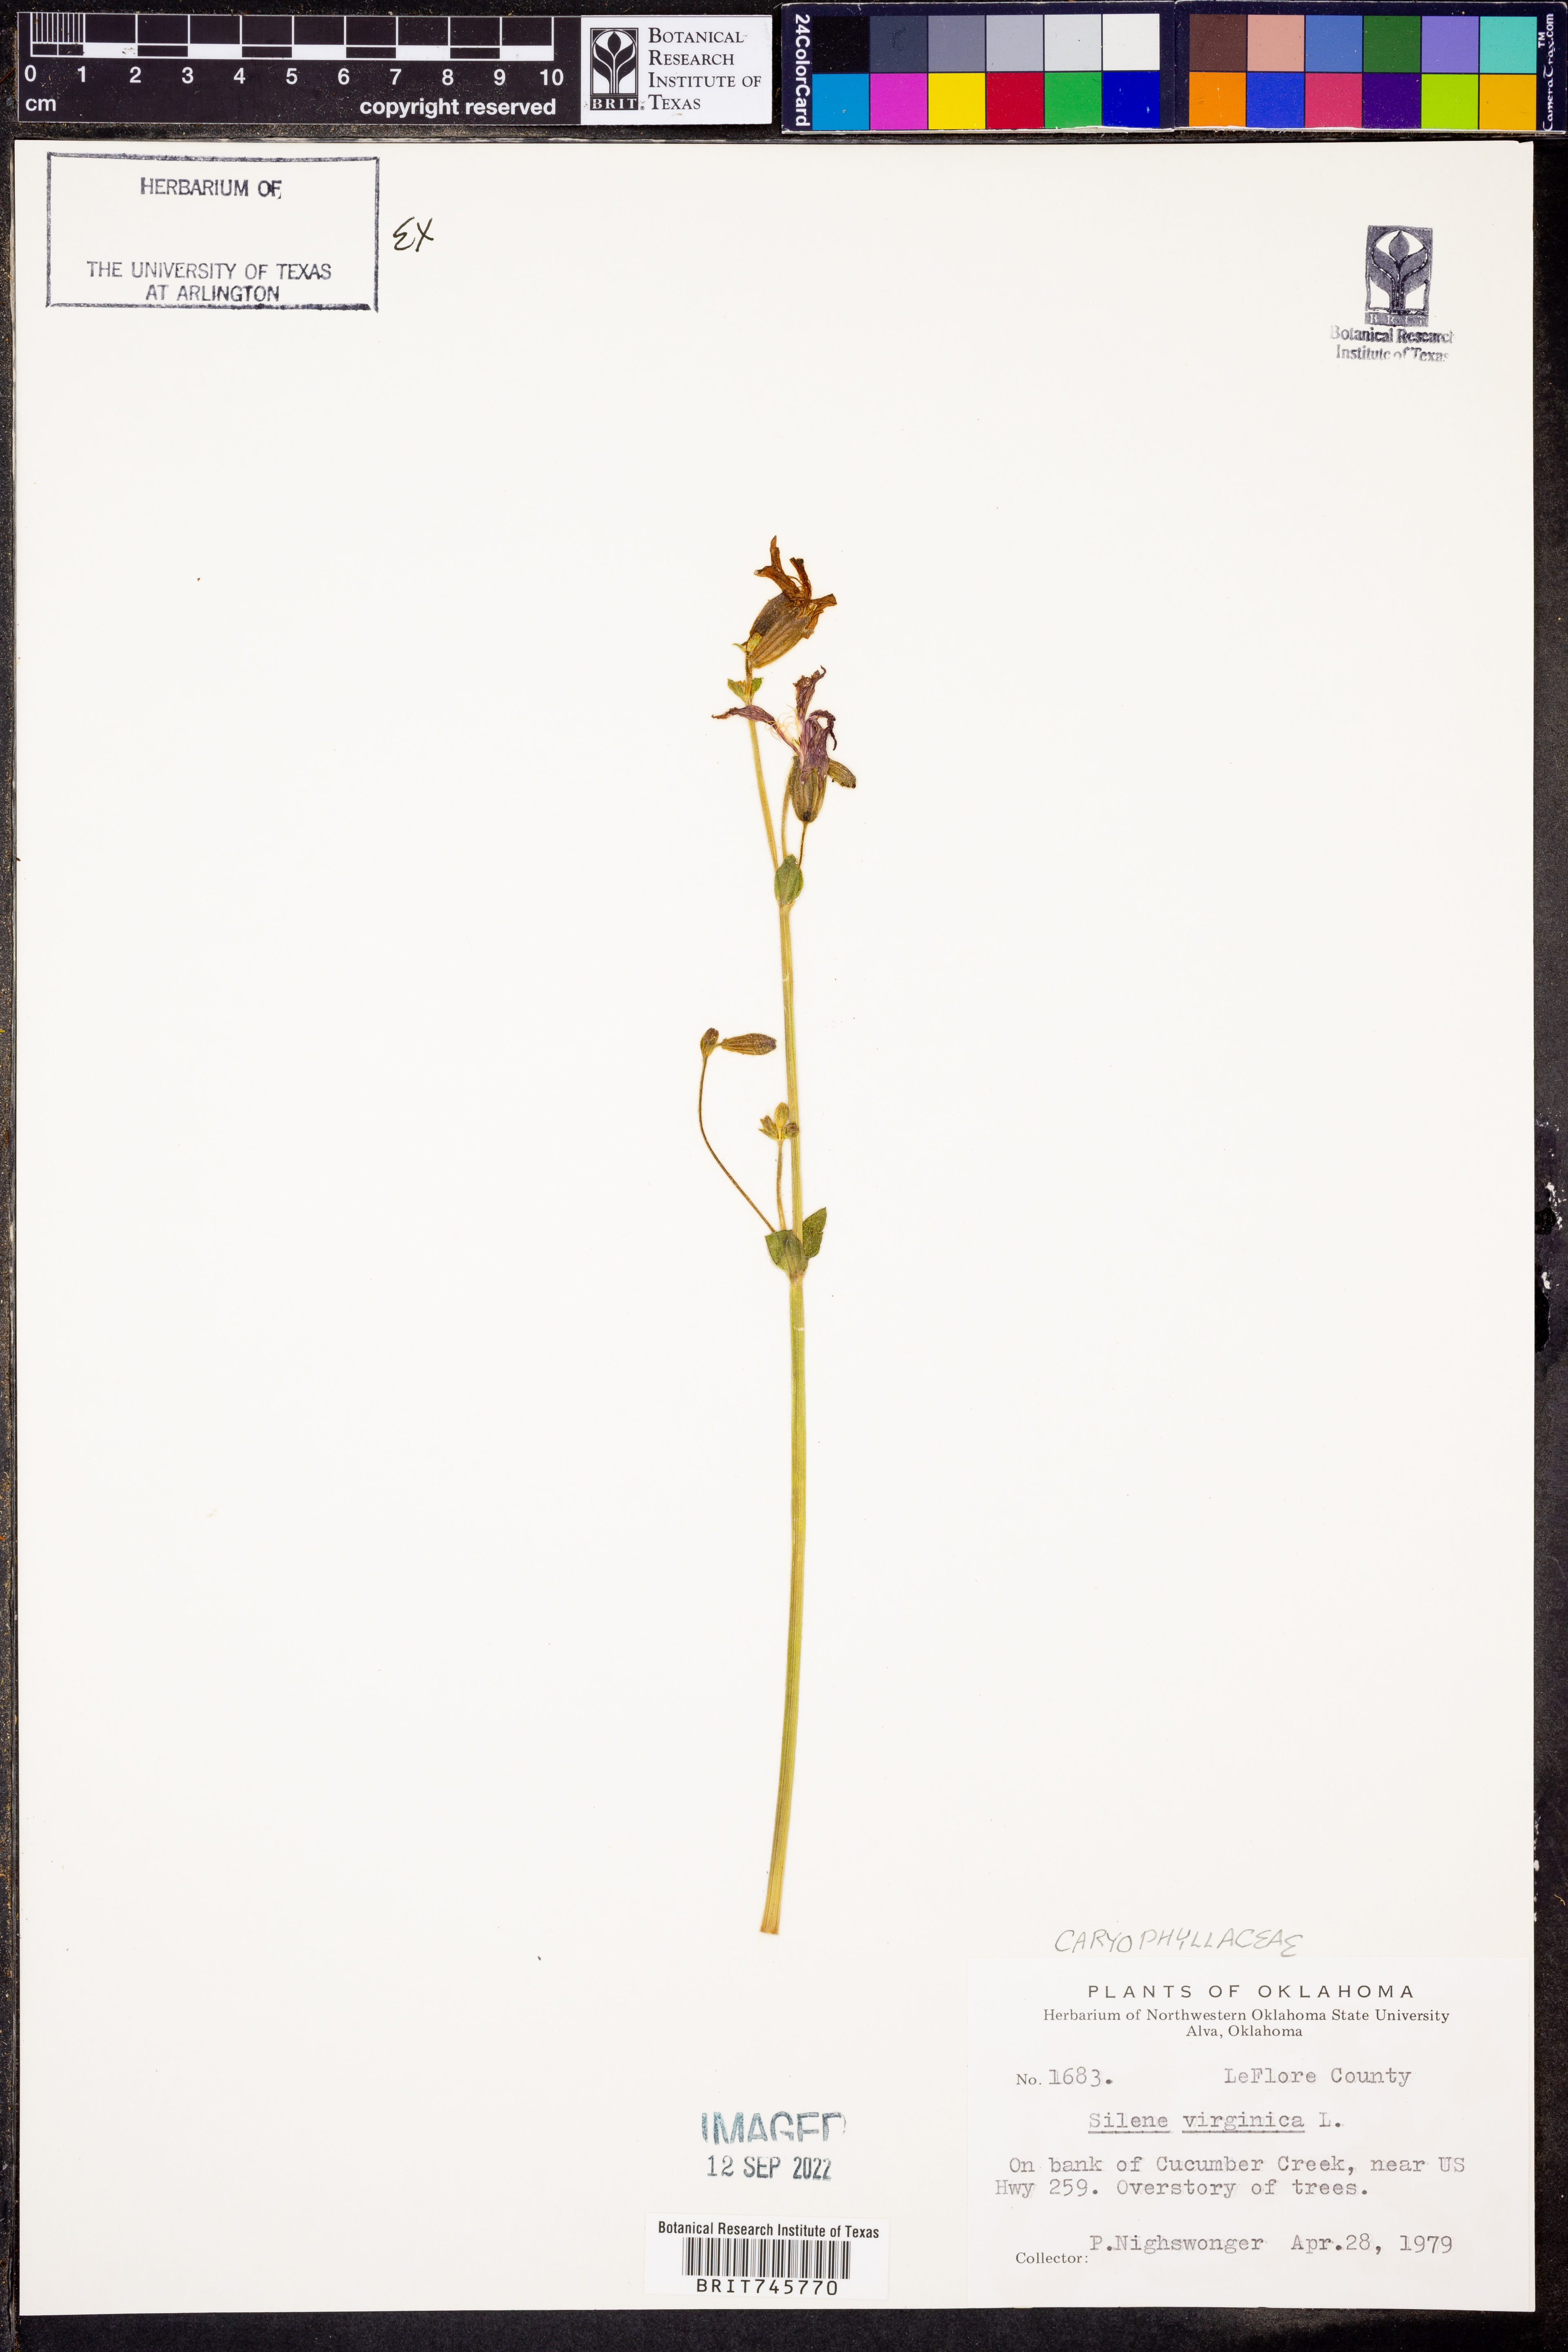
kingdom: Plantae
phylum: Tracheophyta
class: Magnoliopsida
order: Caryophyllales
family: Caryophyllaceae
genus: Silene
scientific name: Silene virginica
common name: Fire-pink
